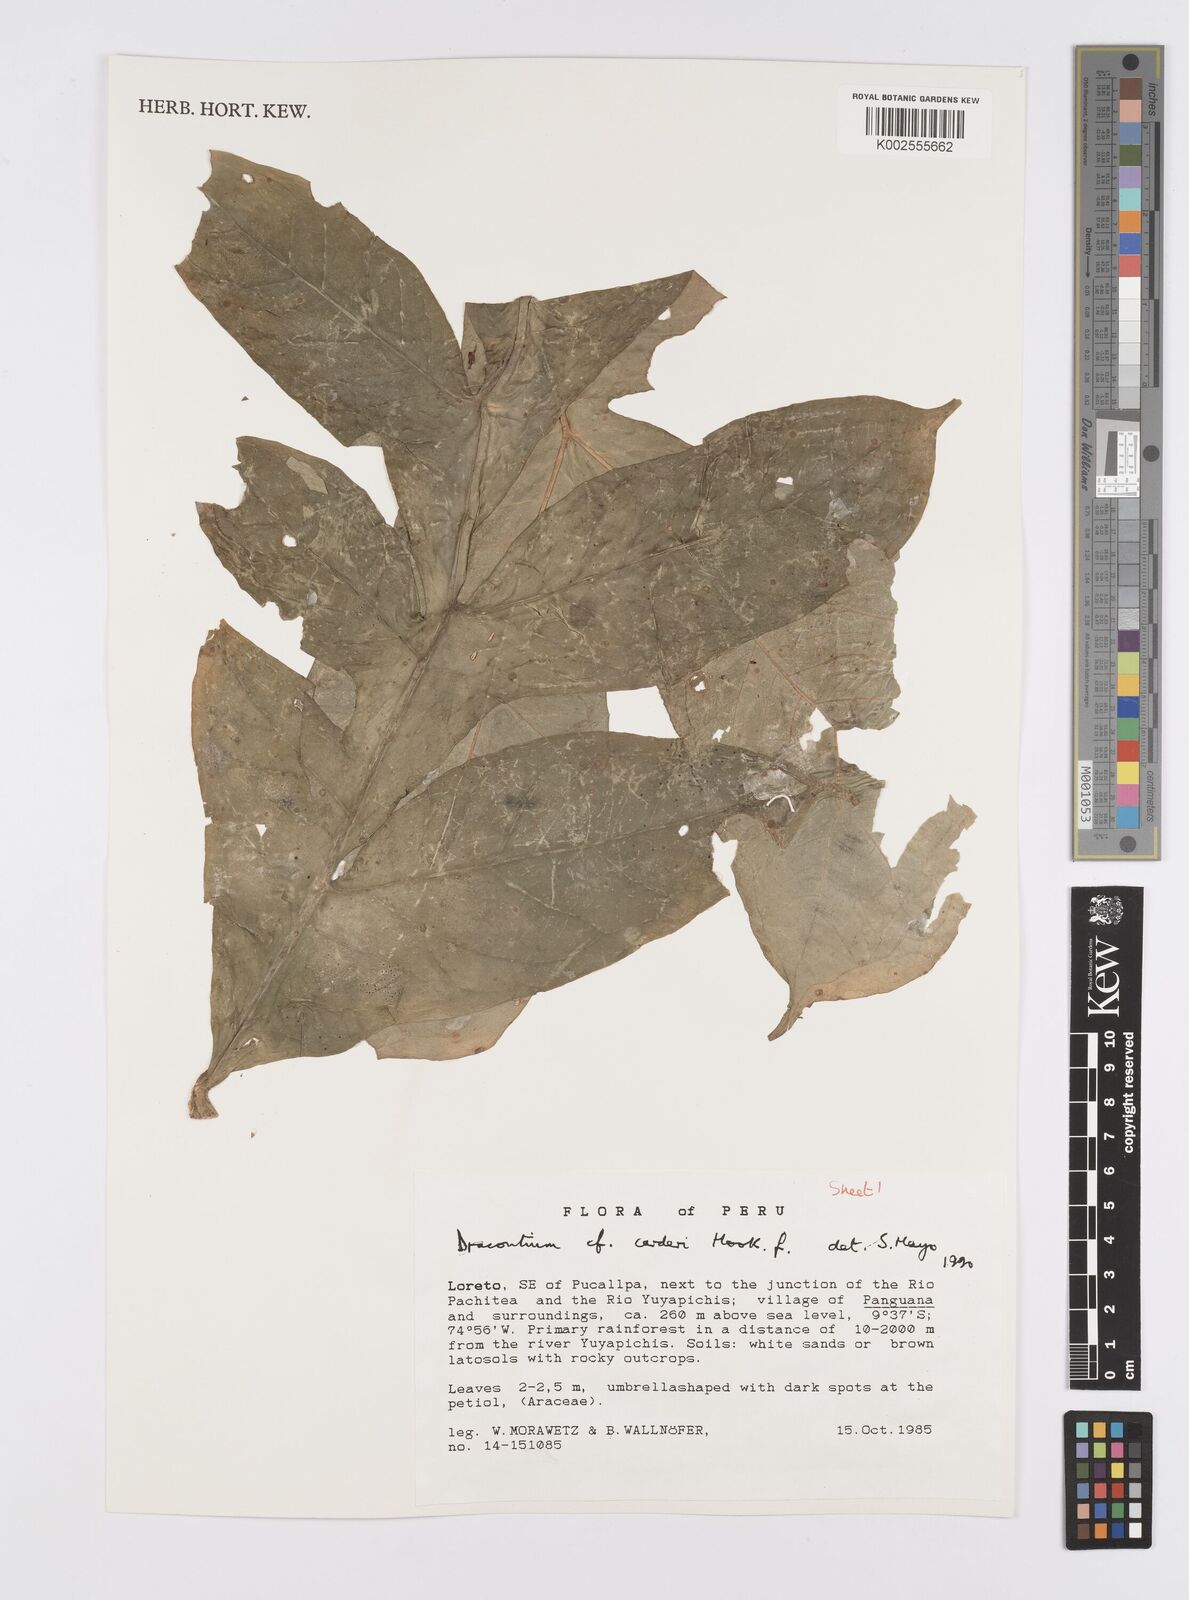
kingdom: Plantae
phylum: Tracheophyta
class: Liliopsida
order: Alismatales
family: Araceae
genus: Dracontium
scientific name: Dracontium spruceanum
